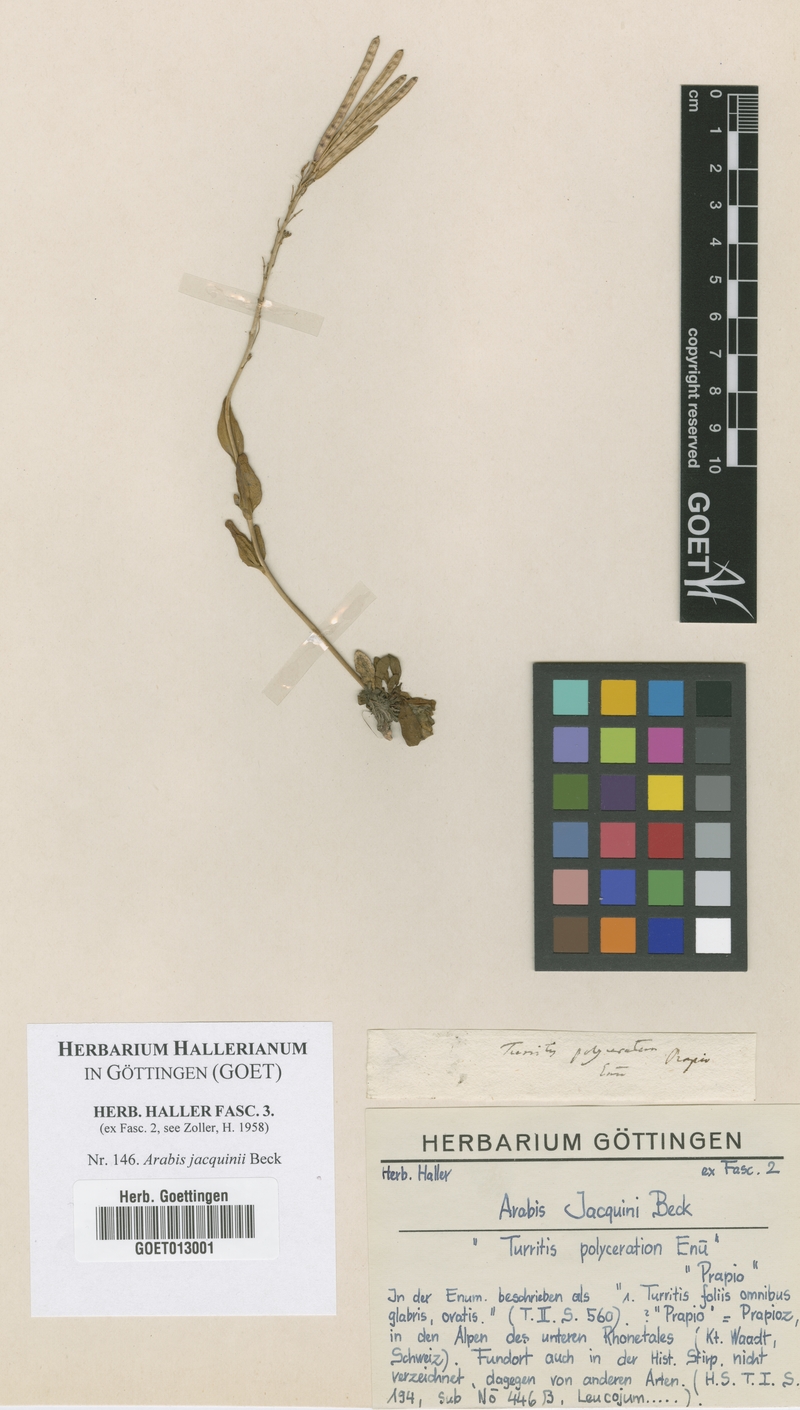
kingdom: Plantae
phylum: Tracheophyta
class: Magnoliopsida
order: Brassicales
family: Brassicaceae
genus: Arabis
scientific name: Arabis soyeri
